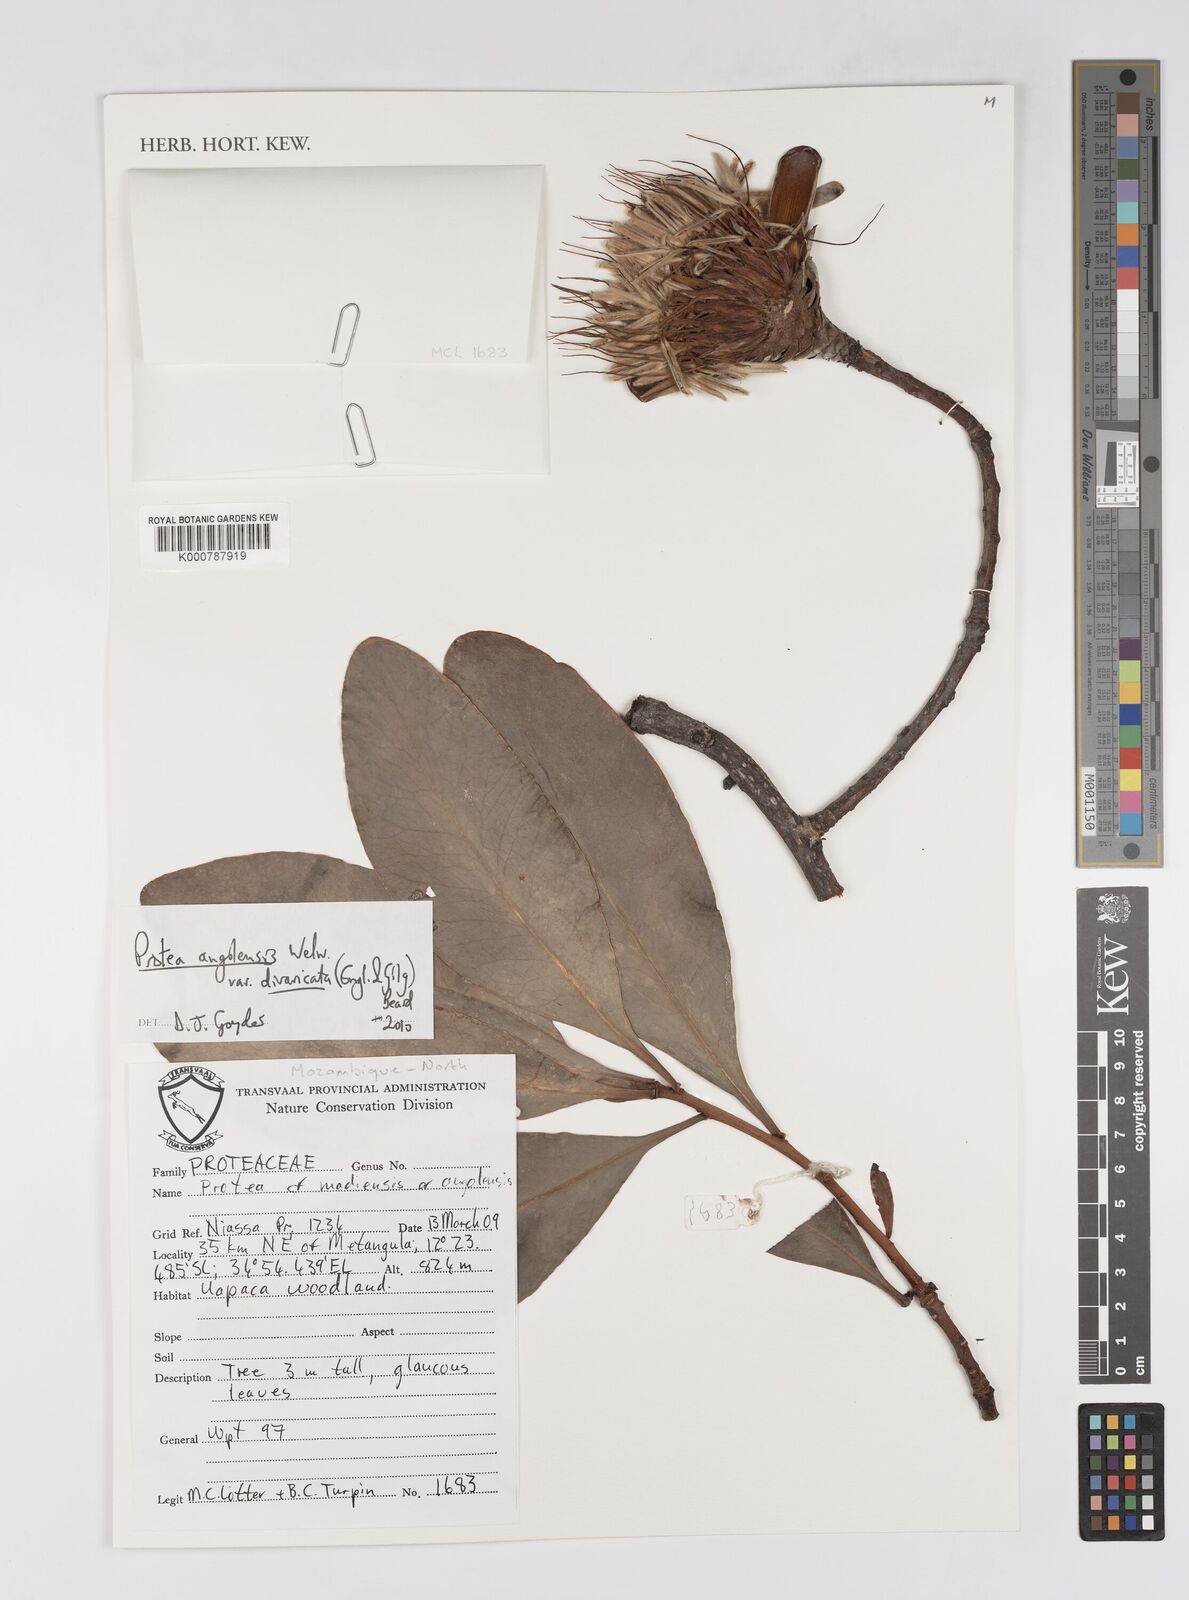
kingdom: Plantae
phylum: Tracheophyta
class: Magnoliopsida
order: Proteales
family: Proteaceae
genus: Protea
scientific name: Protea angolensis
